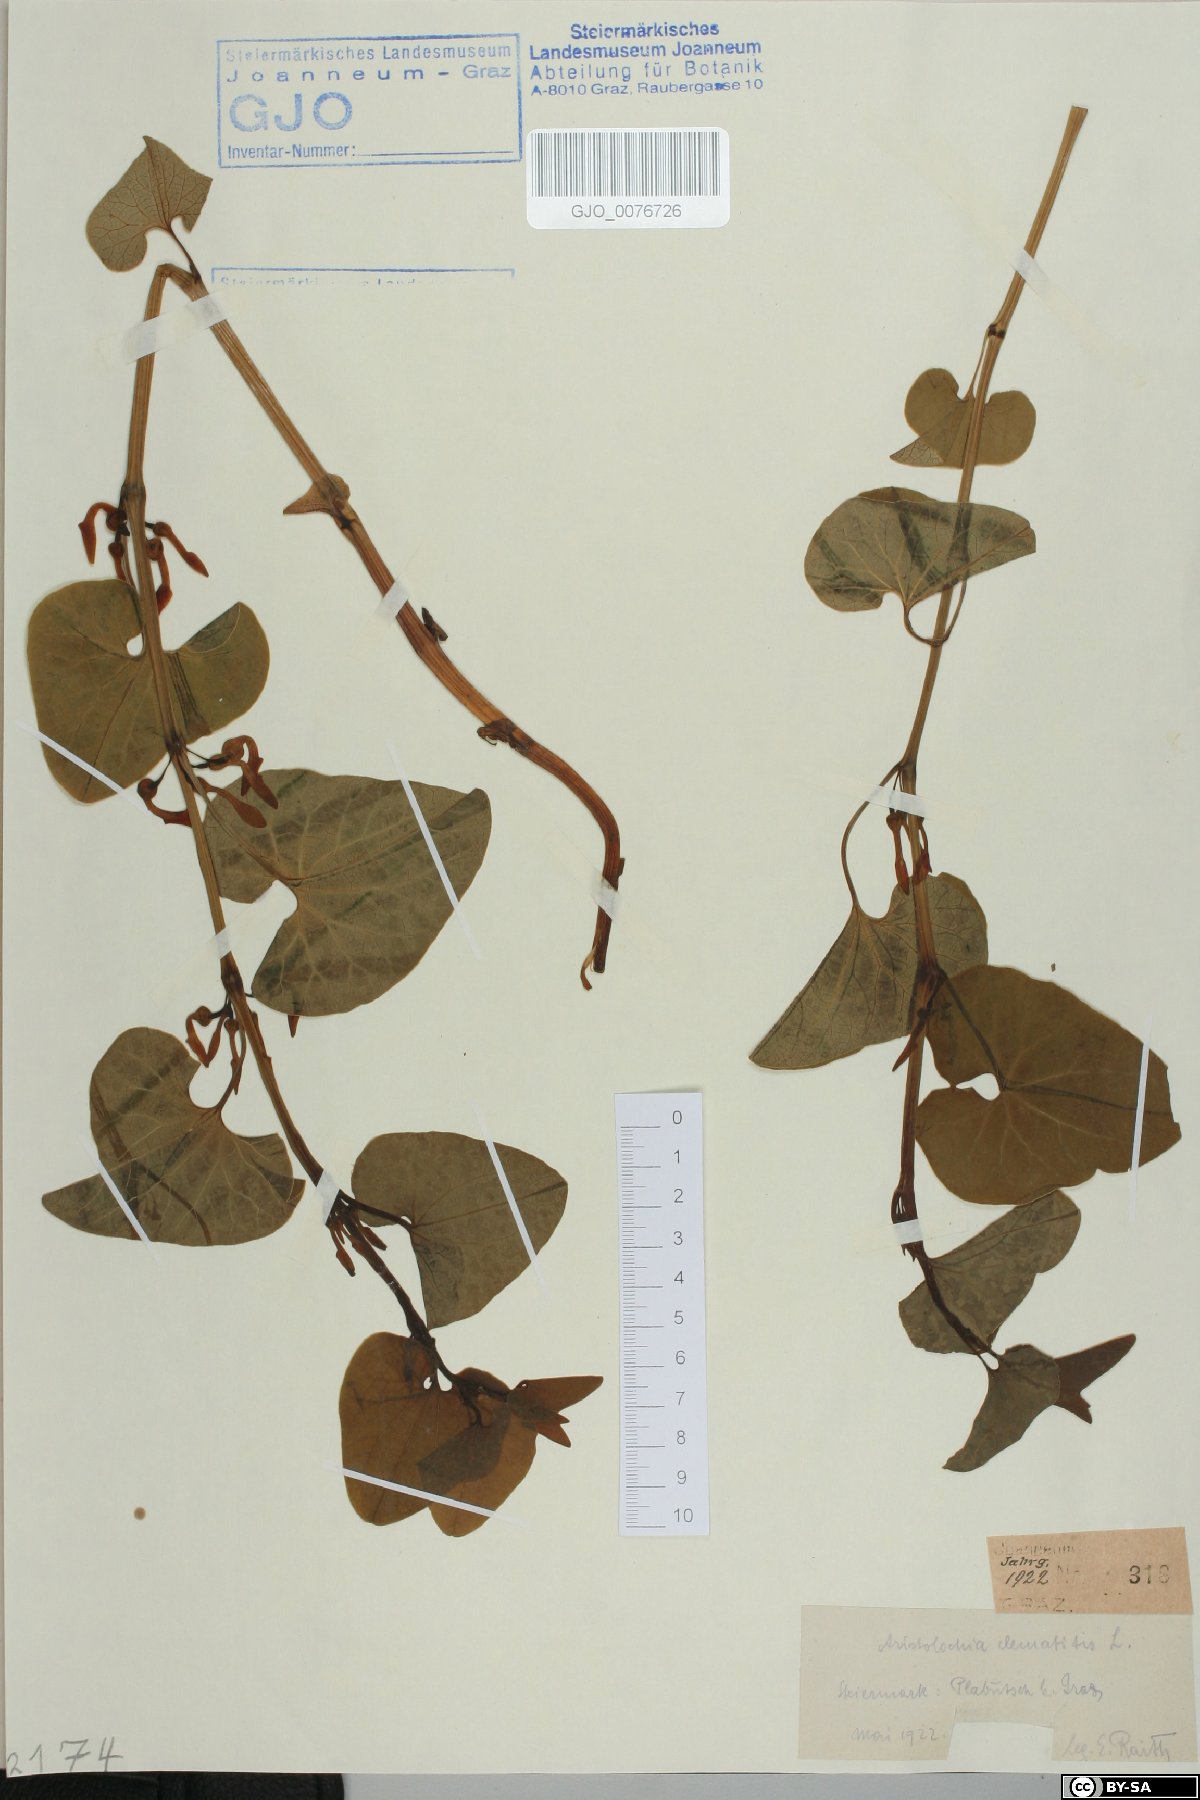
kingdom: Plantae
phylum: Tracheophyta
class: Magnoliopsida
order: Piperales
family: Aristolochiaceae
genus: Aristolochia
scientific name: Aristolochia clematitis
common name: Birthwort
